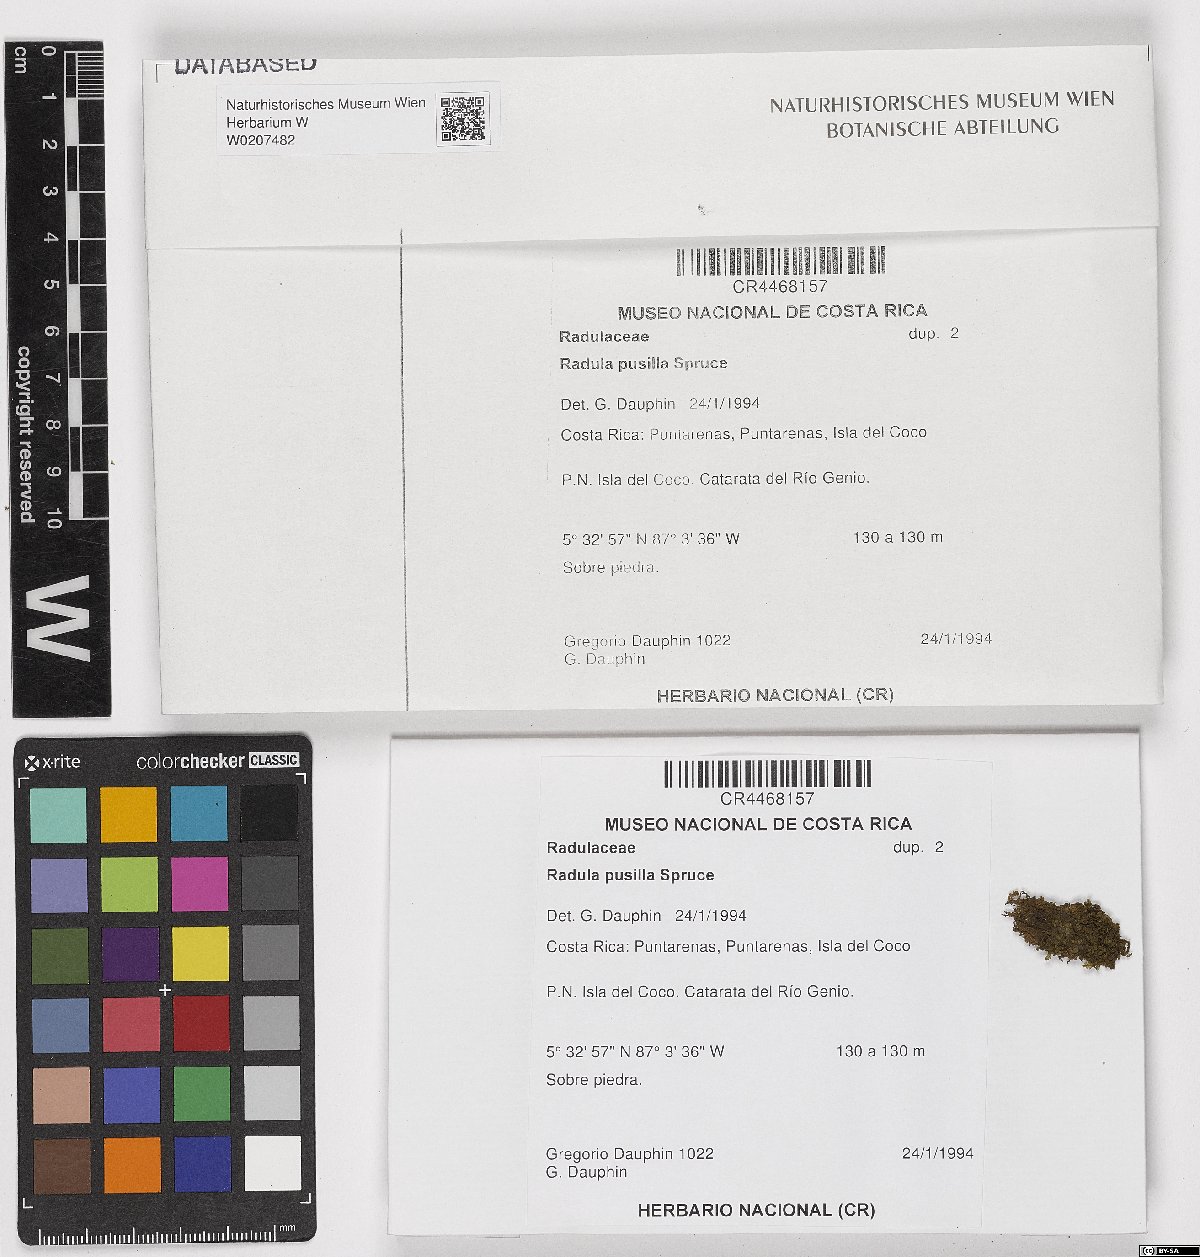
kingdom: Plantae
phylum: Marchantiophyta
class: Jungermanniopsida
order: Porellales
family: Radulaceae
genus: Radula
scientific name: Radula pusilla
